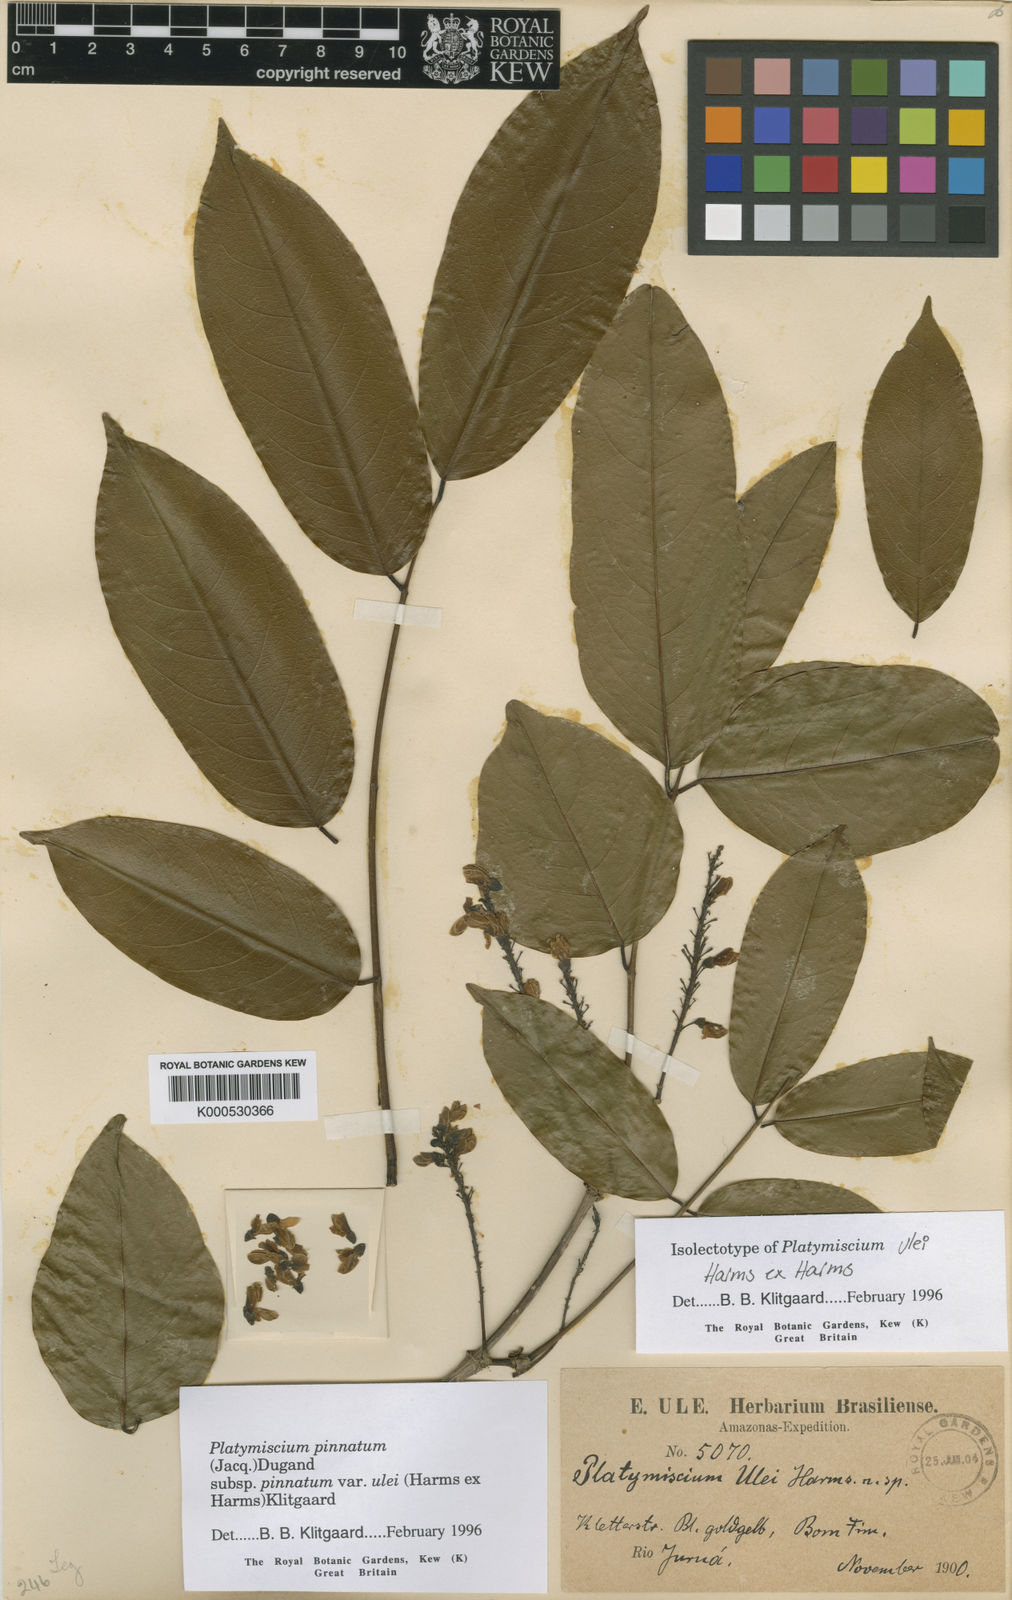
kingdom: Plantae
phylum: Tracheophyta
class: Magnoliopsida
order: Fabales
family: Fabaceae
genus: Platymiscium
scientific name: Platymiscium pinnatum
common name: Panama redwood
